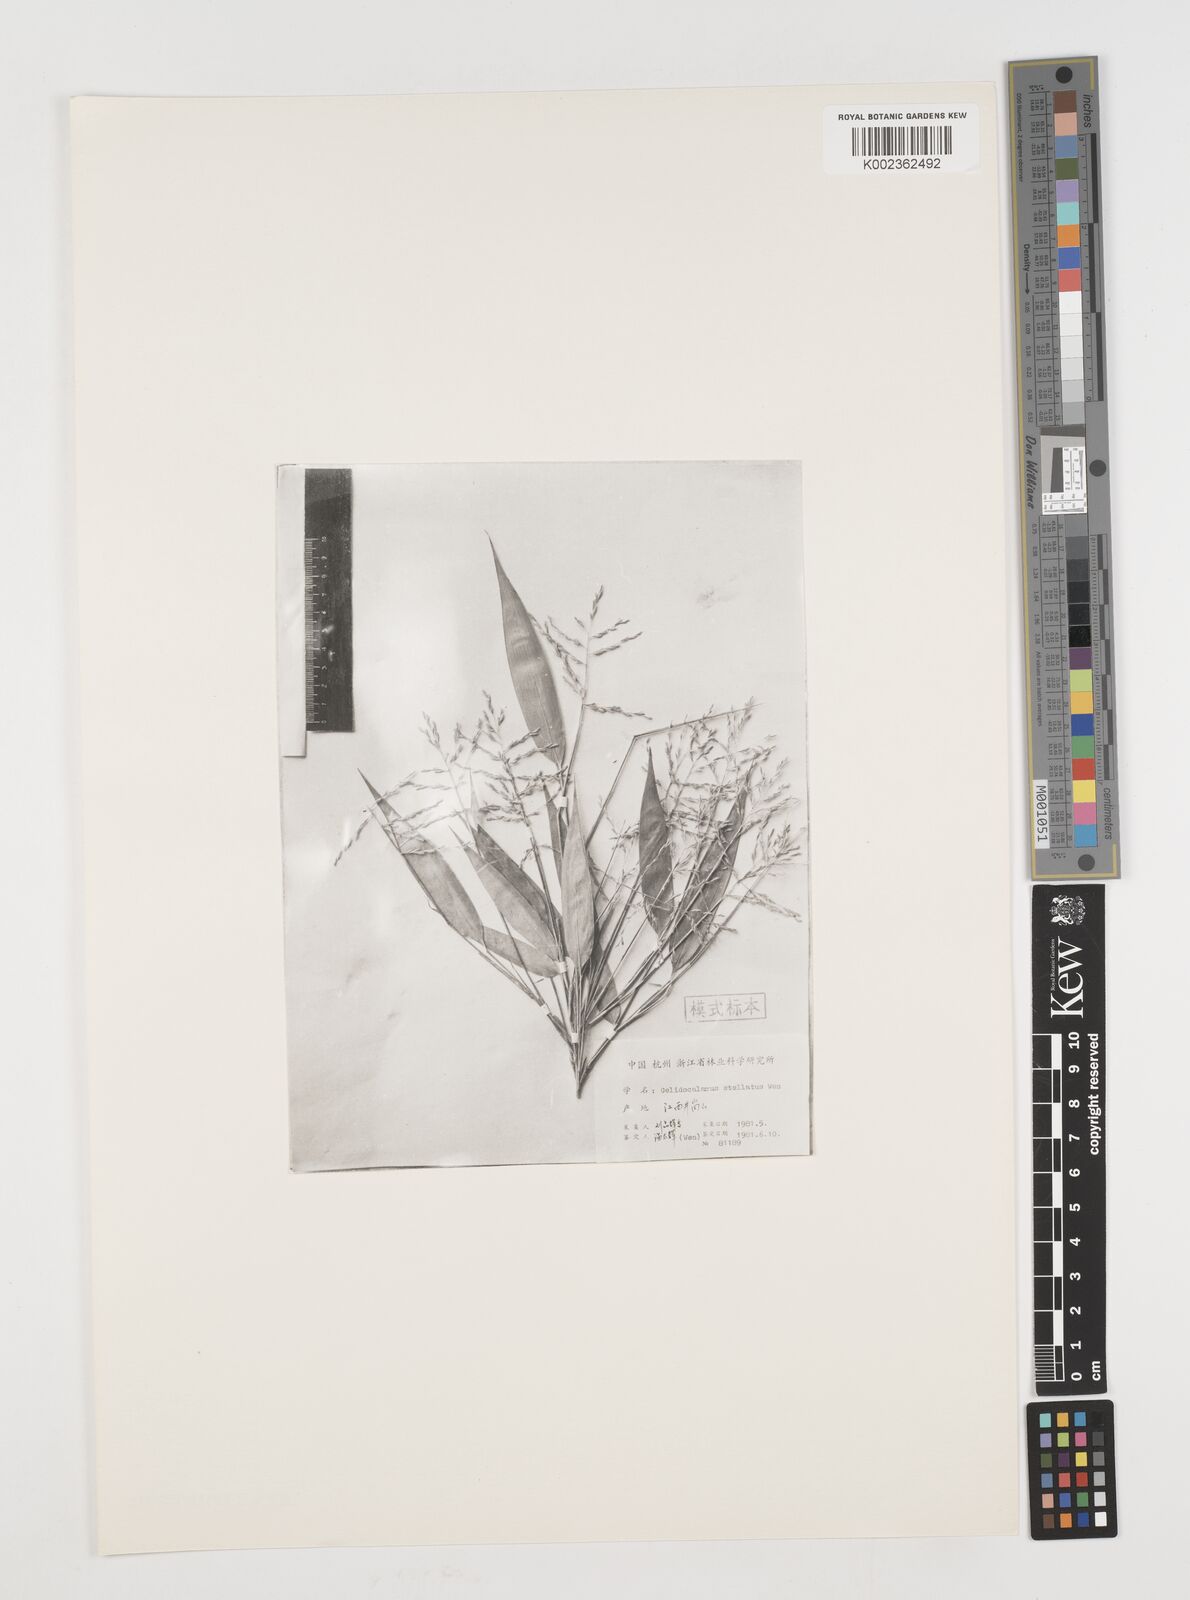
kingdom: Plantae
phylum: Tracheophyta
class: Liliopsida
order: Poales
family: Poaceae
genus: Gelidocalamus
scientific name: Gelidocalamus stellatus
